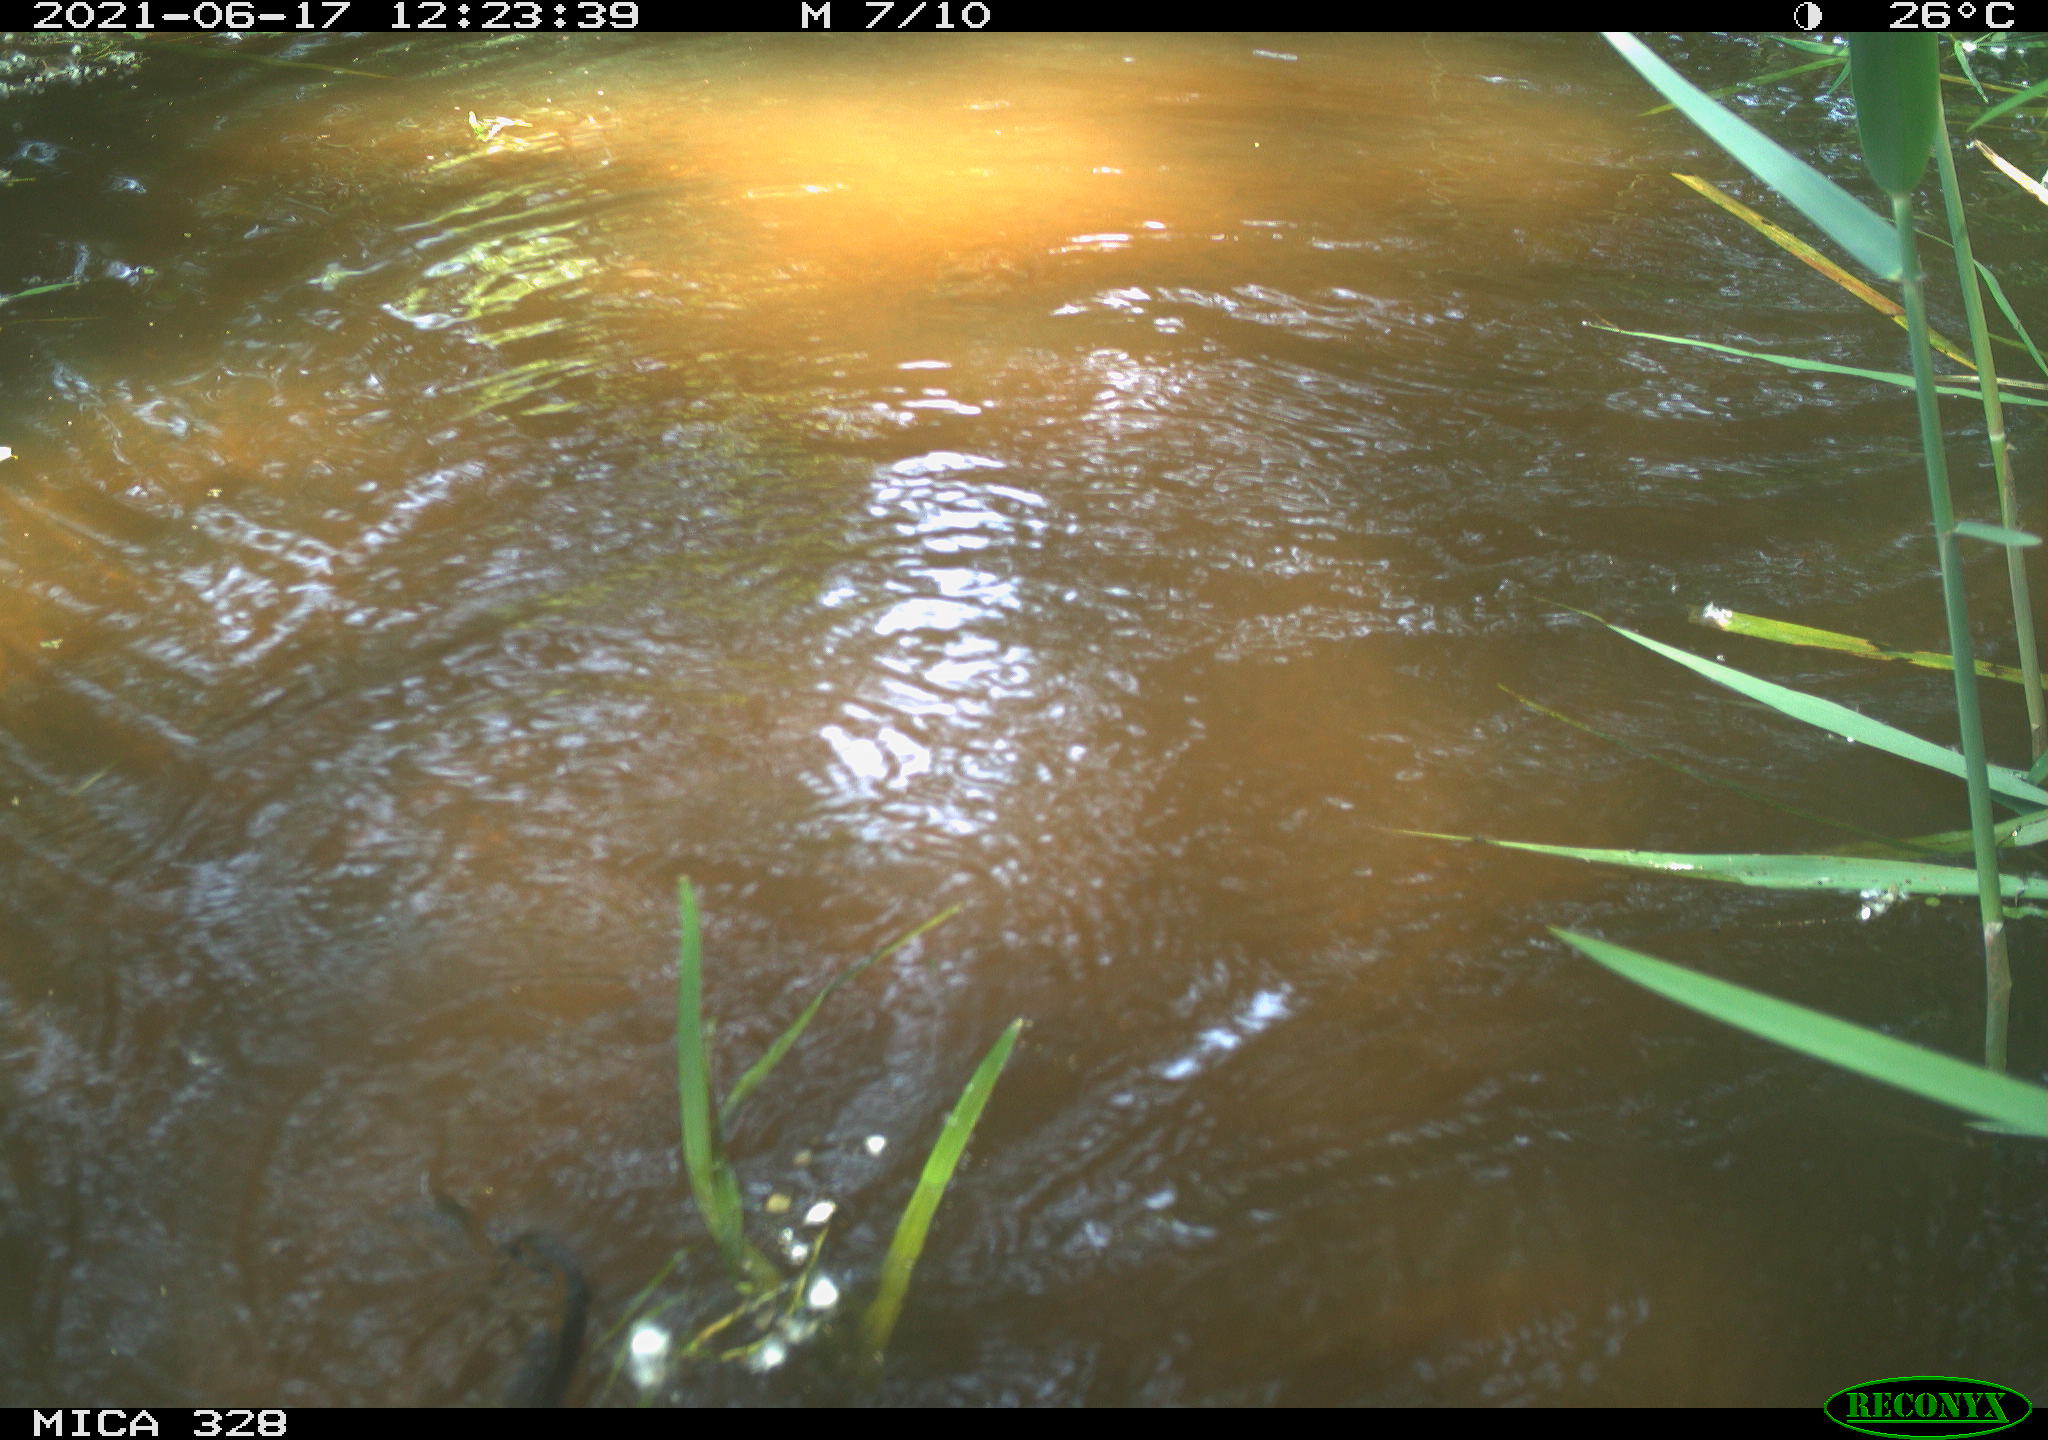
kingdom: Animalia
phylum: Chordata
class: Mammalia
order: Rodentia
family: Cricetidae
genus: Ondatra
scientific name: Ondatra zibethicus
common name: Muskrat
